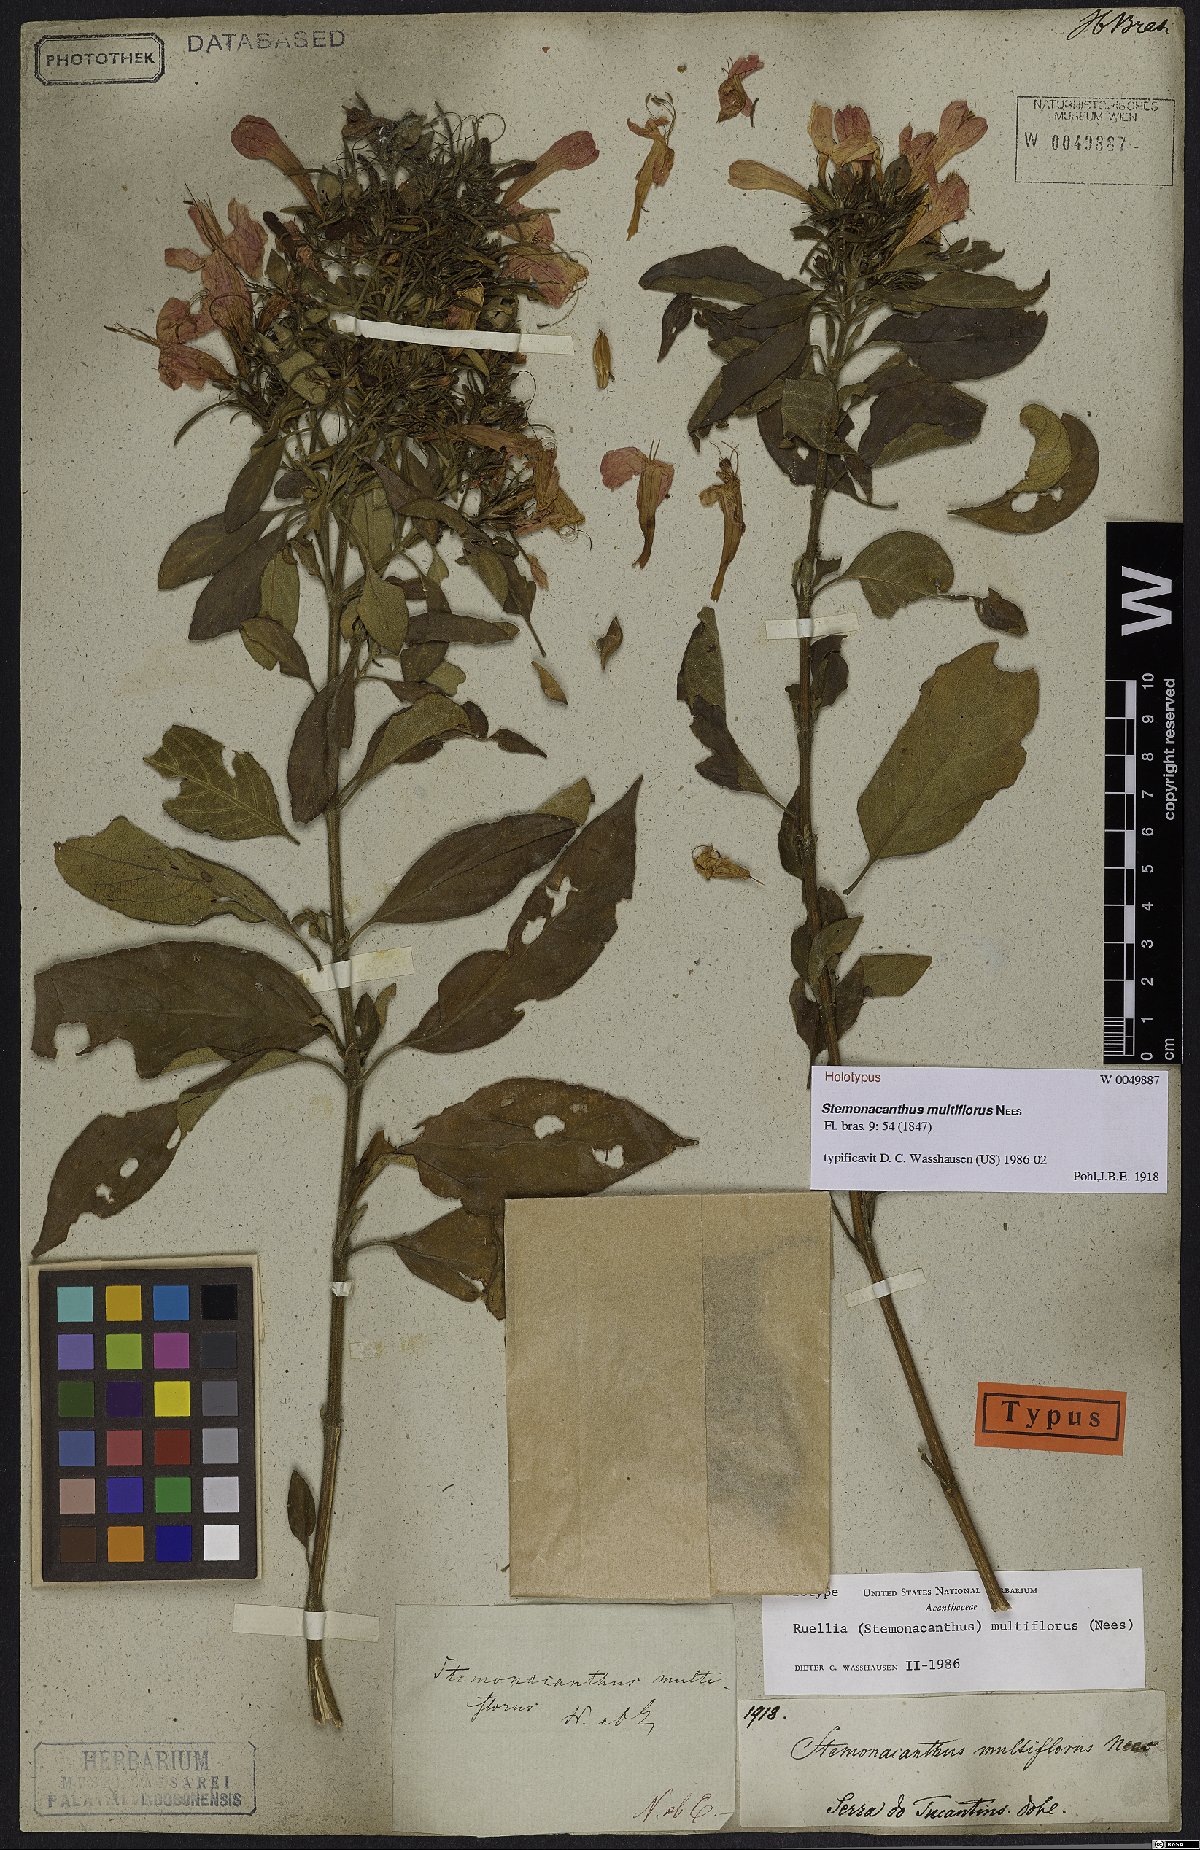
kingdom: Plantae
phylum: Tracheophyta
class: Magnoliopsida
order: Lamiales
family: Acanthaceae
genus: Ruellia
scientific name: Ruellia Stemonacanthus multiflorus
